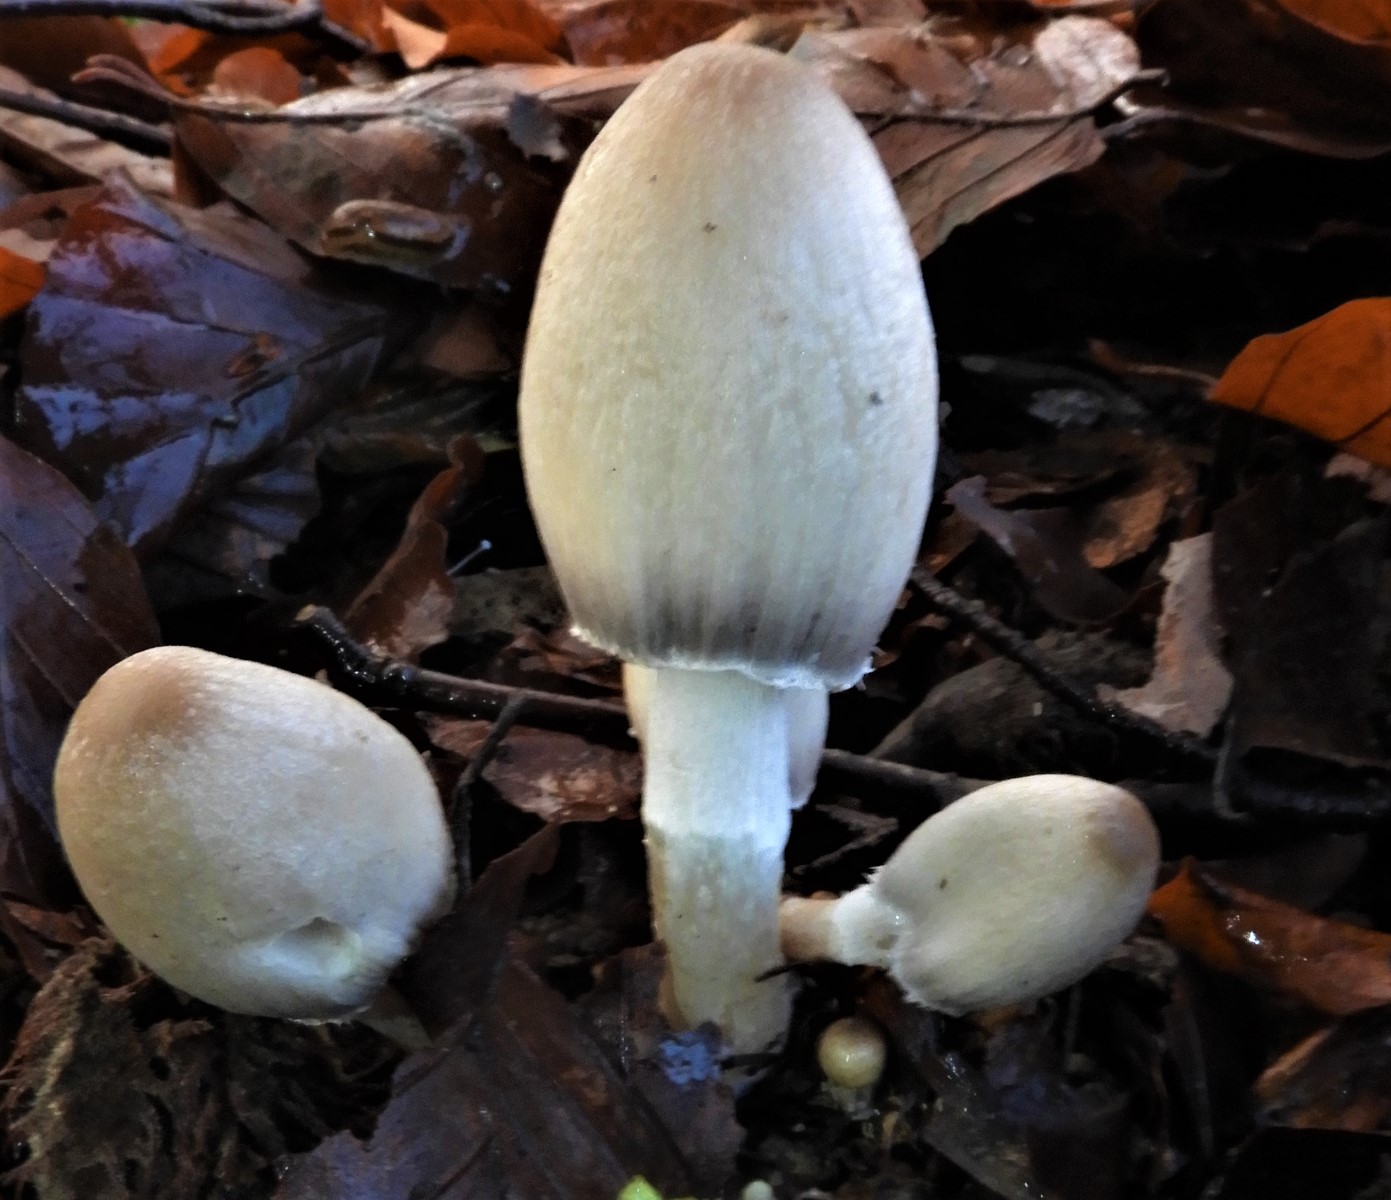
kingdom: Fungi
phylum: Basidiomycota
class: Agaricomycetes
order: Agaricales
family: Psathyrellaceae
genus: Coprinopsis
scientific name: Coprinopsis
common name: blækhat
